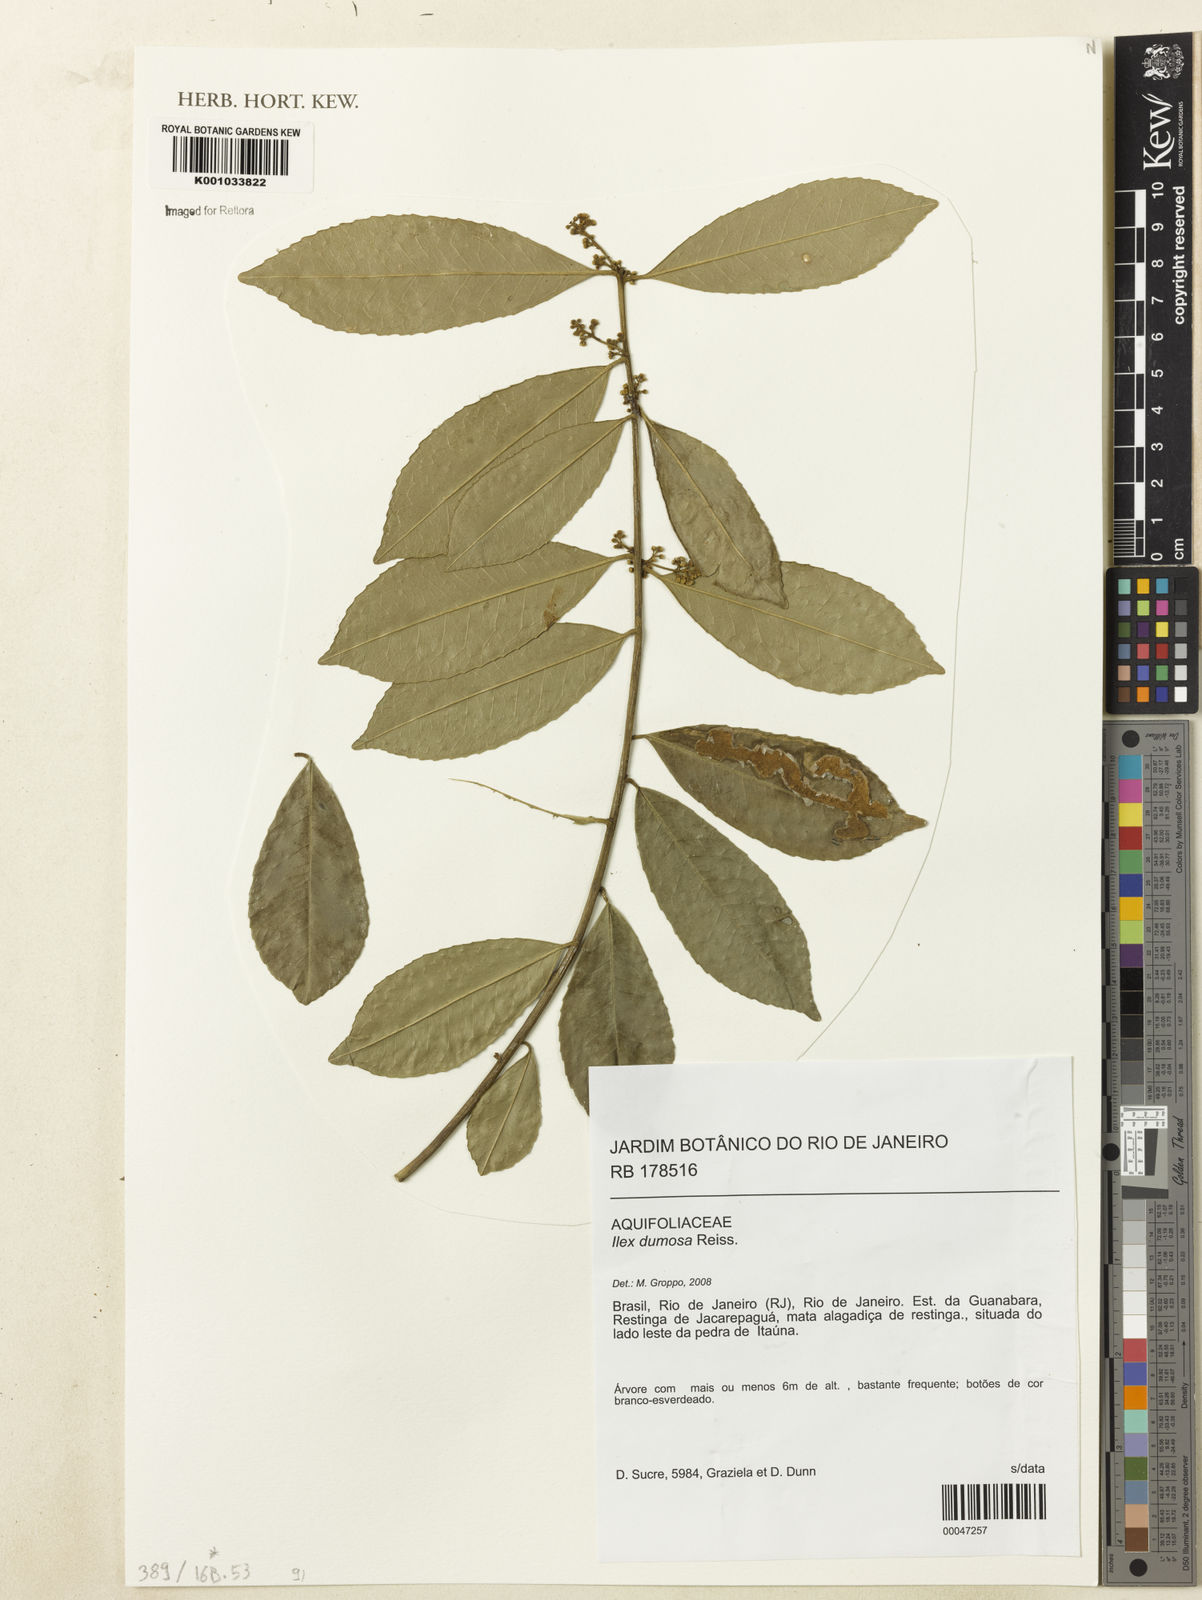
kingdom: Plantae
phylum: Tracheophyta
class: Magnoliopsida
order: Aquifoliales
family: Aquifoliaceae
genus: Ilex
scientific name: Ilex dumosa
